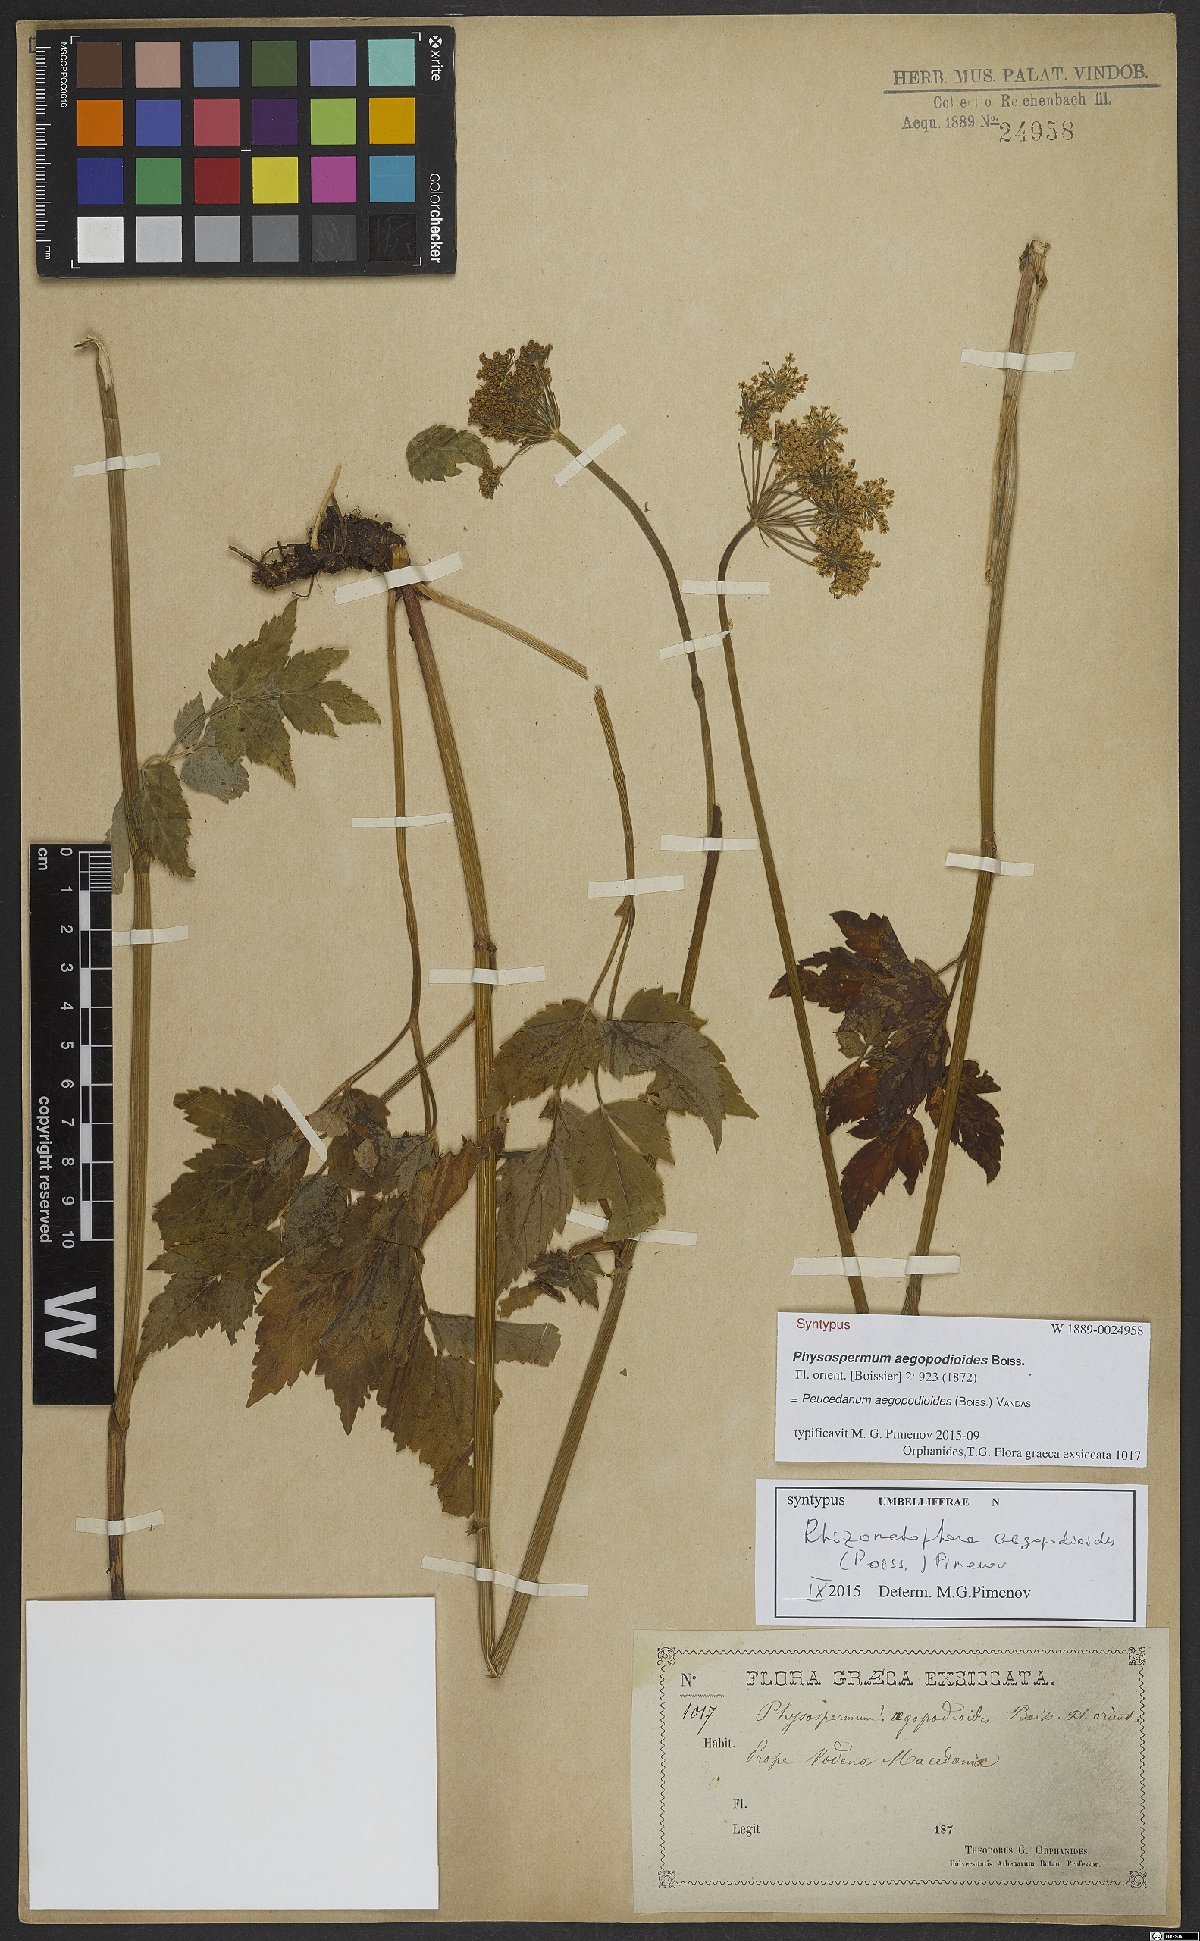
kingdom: Plantae
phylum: Tracheophyta
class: Magnoliopsida
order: Apiales
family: Apiaceae
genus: Rhizomatophora
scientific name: Rhizomatophora aegopodioides
